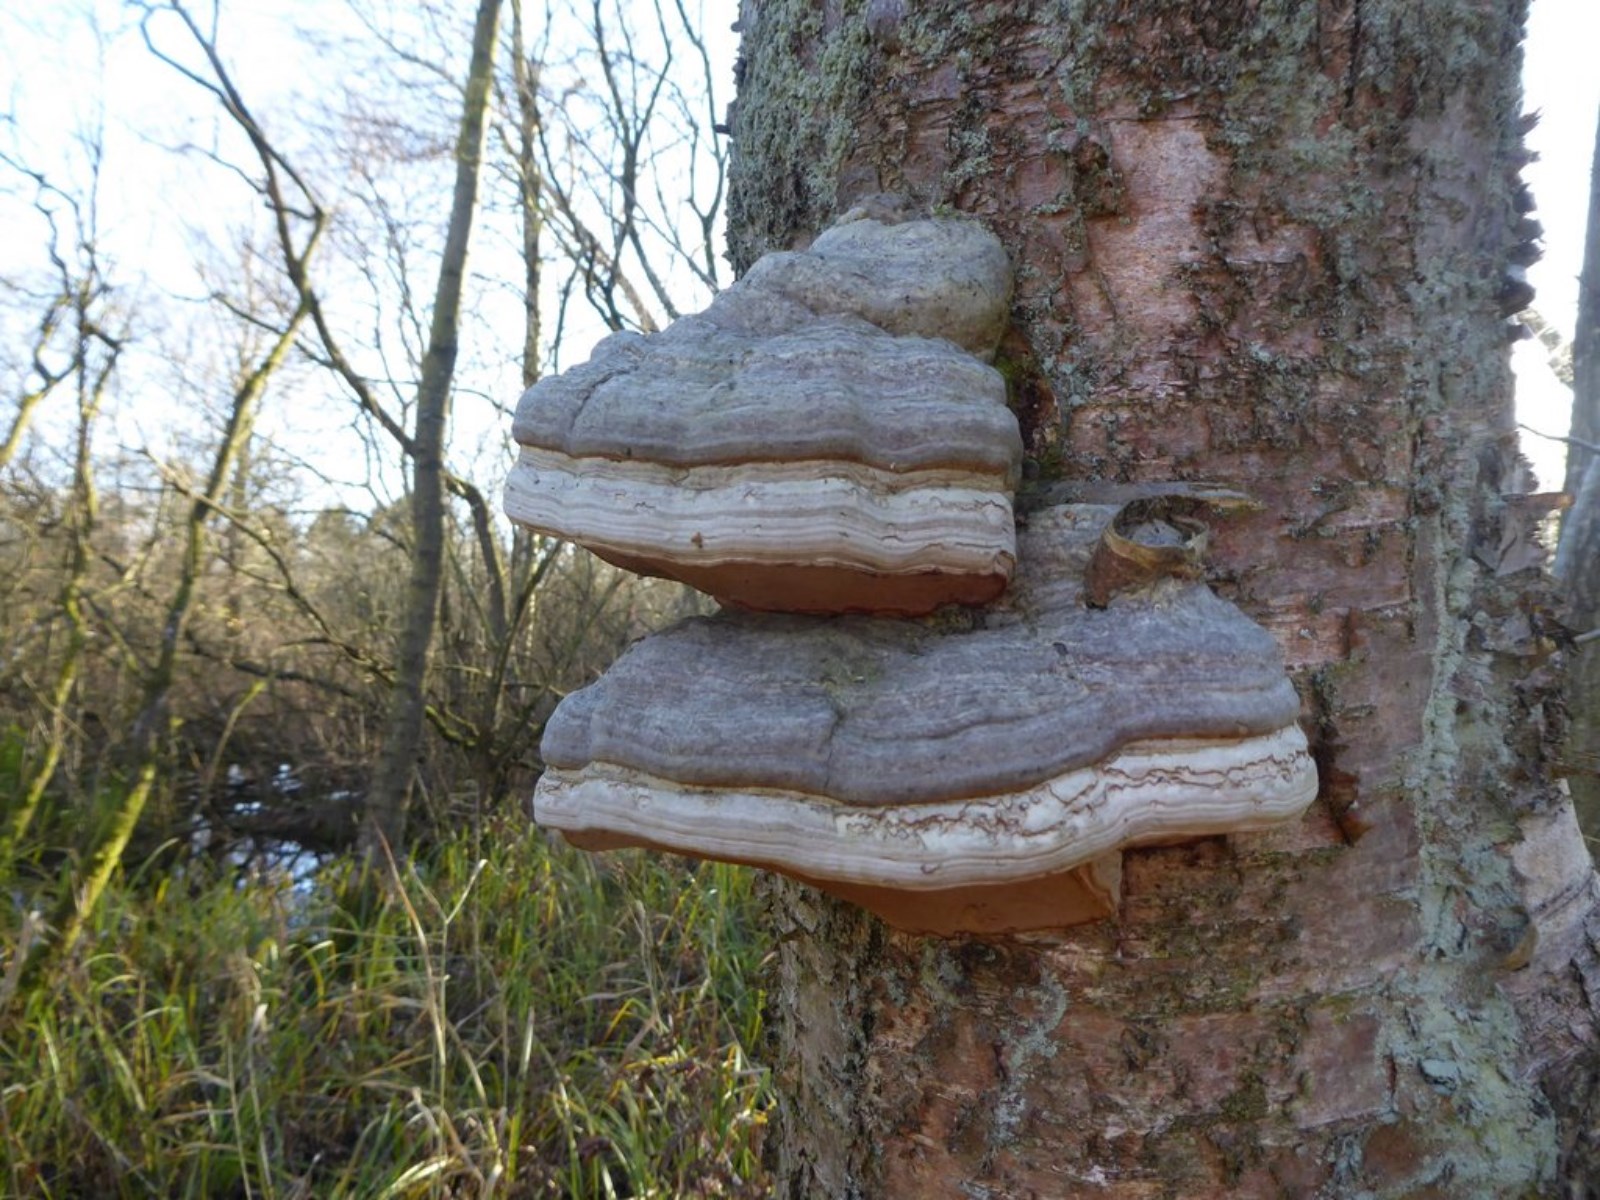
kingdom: Fungi
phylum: Basidiomycota
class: Agaricomycetes
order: Polyporales
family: Polyporaceae
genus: Fomes
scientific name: Fomes fomentarius
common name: tøndersvamp
